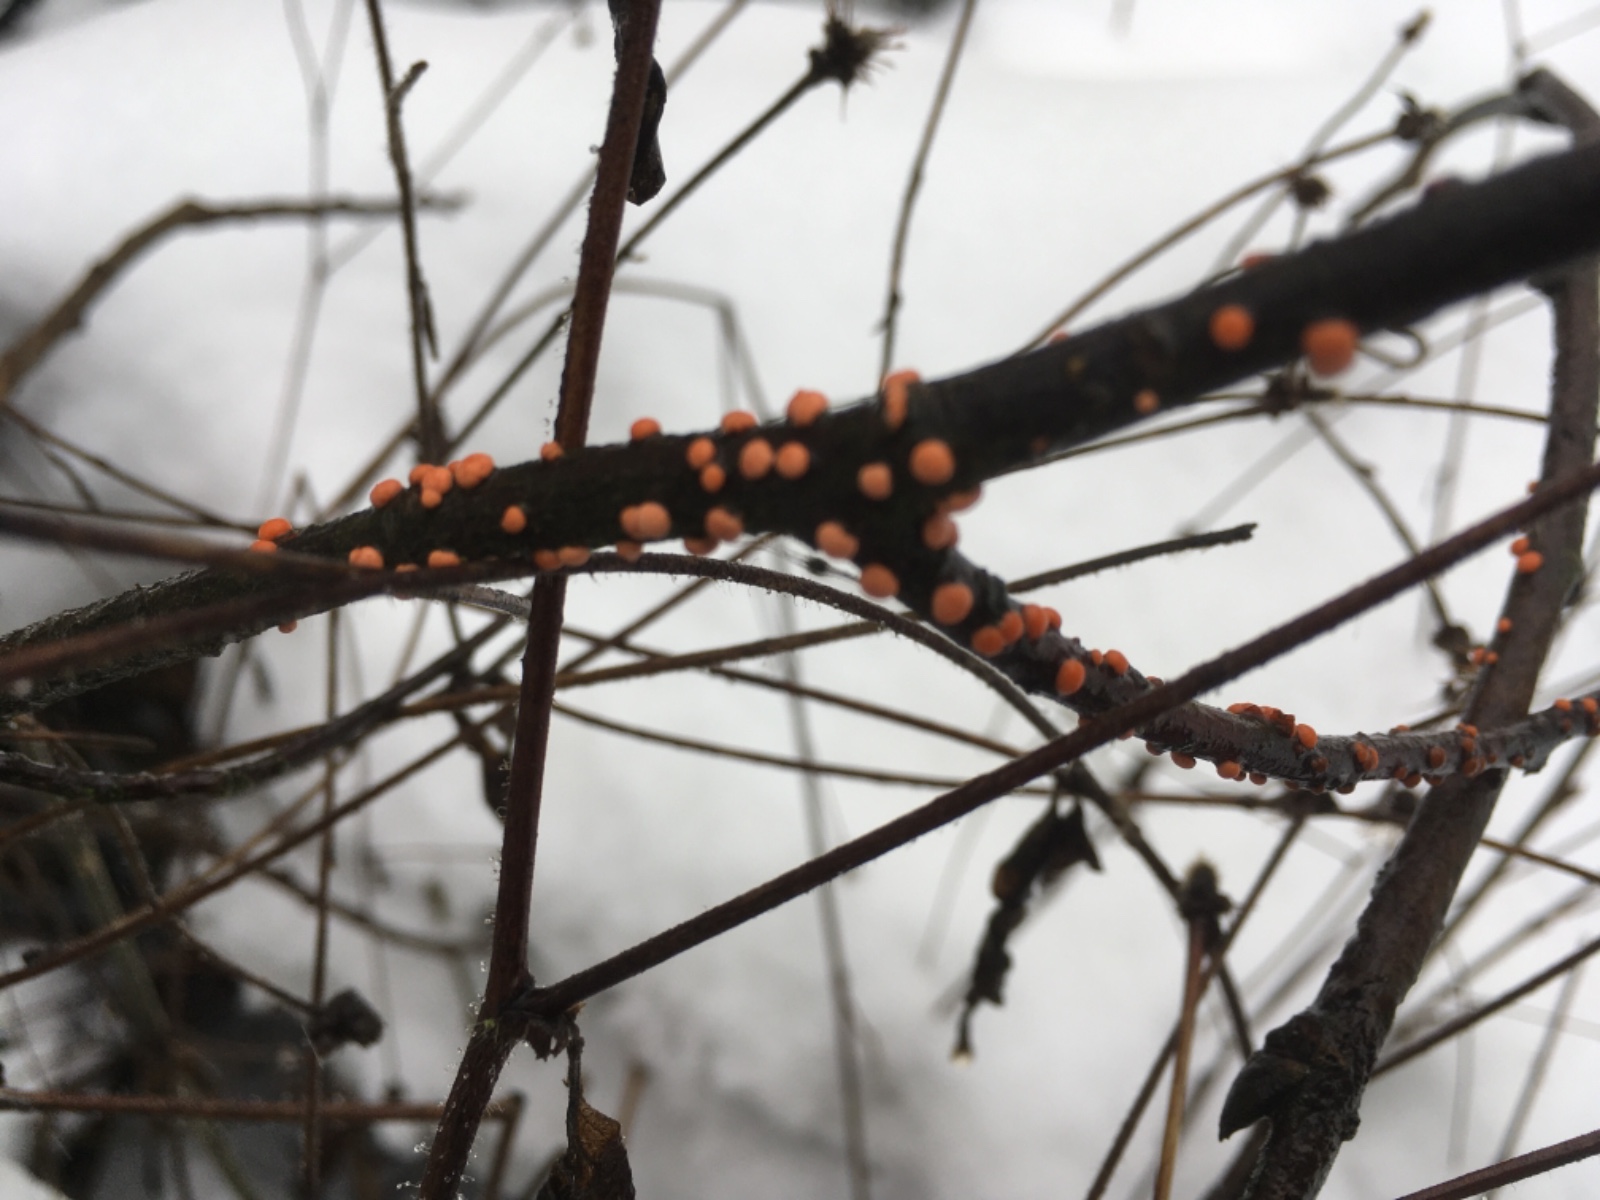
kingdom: Fungi
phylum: Ascomycota
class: Sordariomycetes
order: Hypocreales
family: Nectriaceae
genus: Nectria
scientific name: Nectria cinnabarina
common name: almindelig cinnobersvamp
